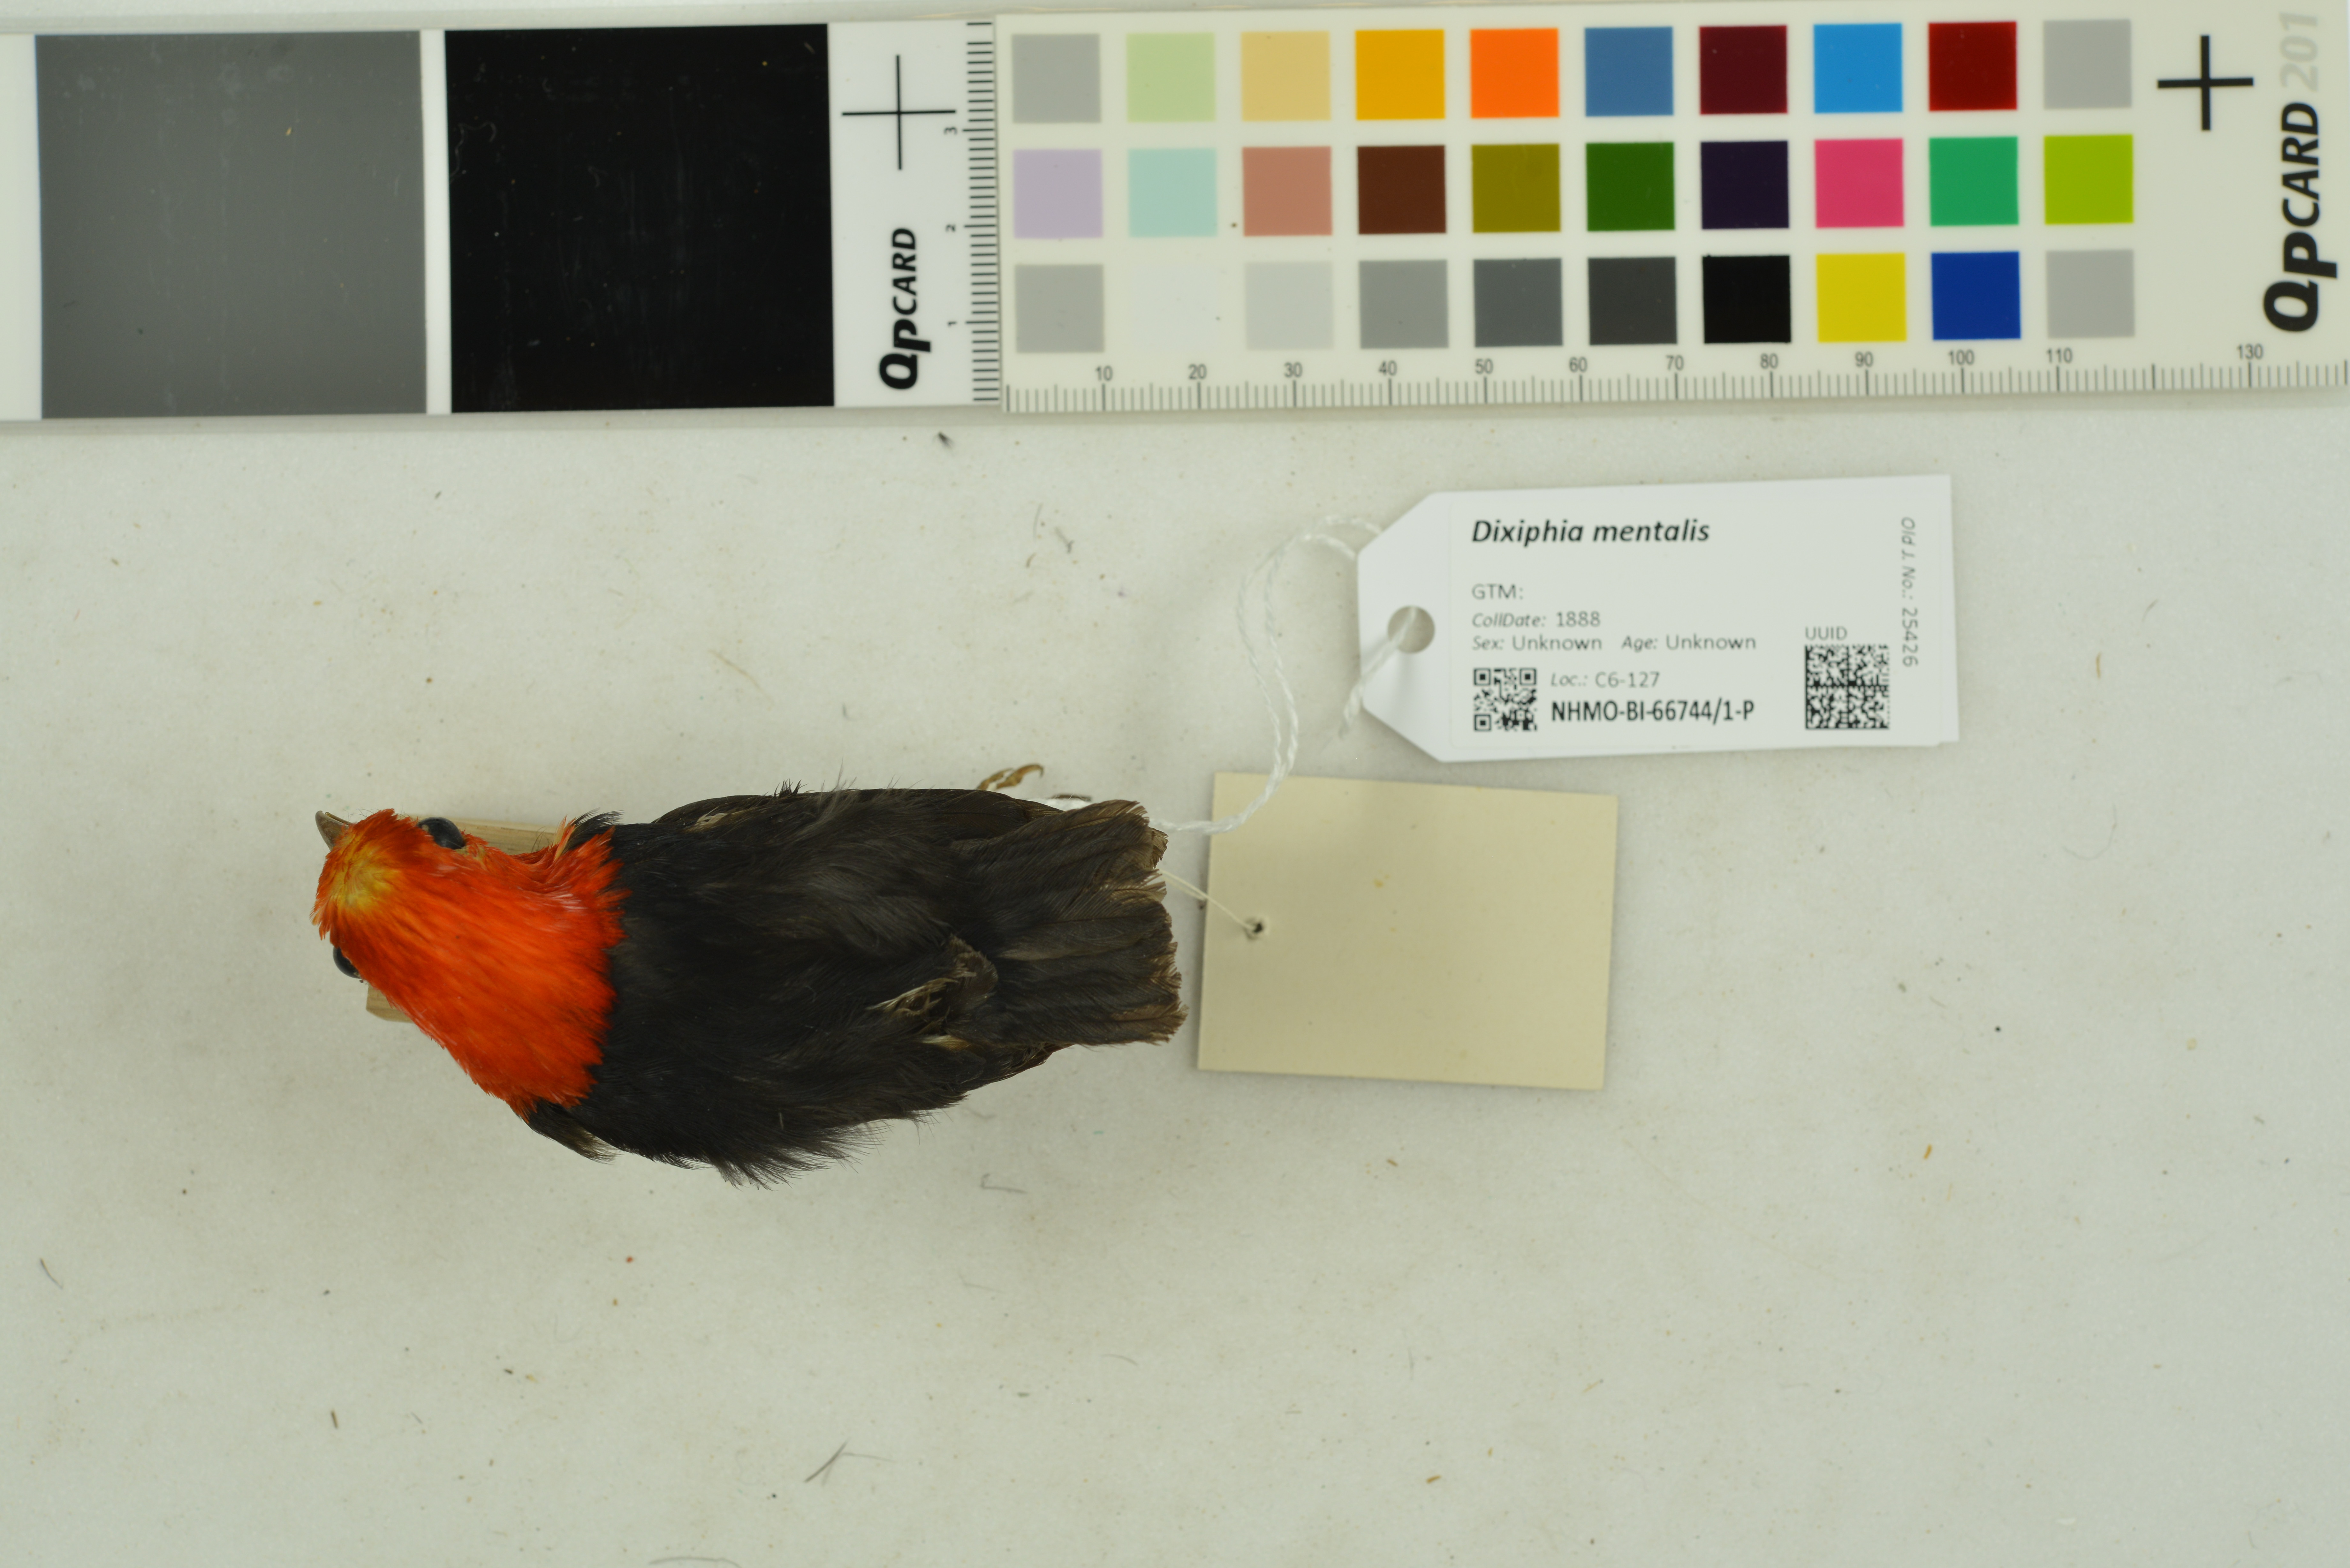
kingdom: Animalia
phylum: Chordata
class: Aves
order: Passeriformes
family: Pipridae
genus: Pipra
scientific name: Pipra mentalis
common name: Red-capped manakin
